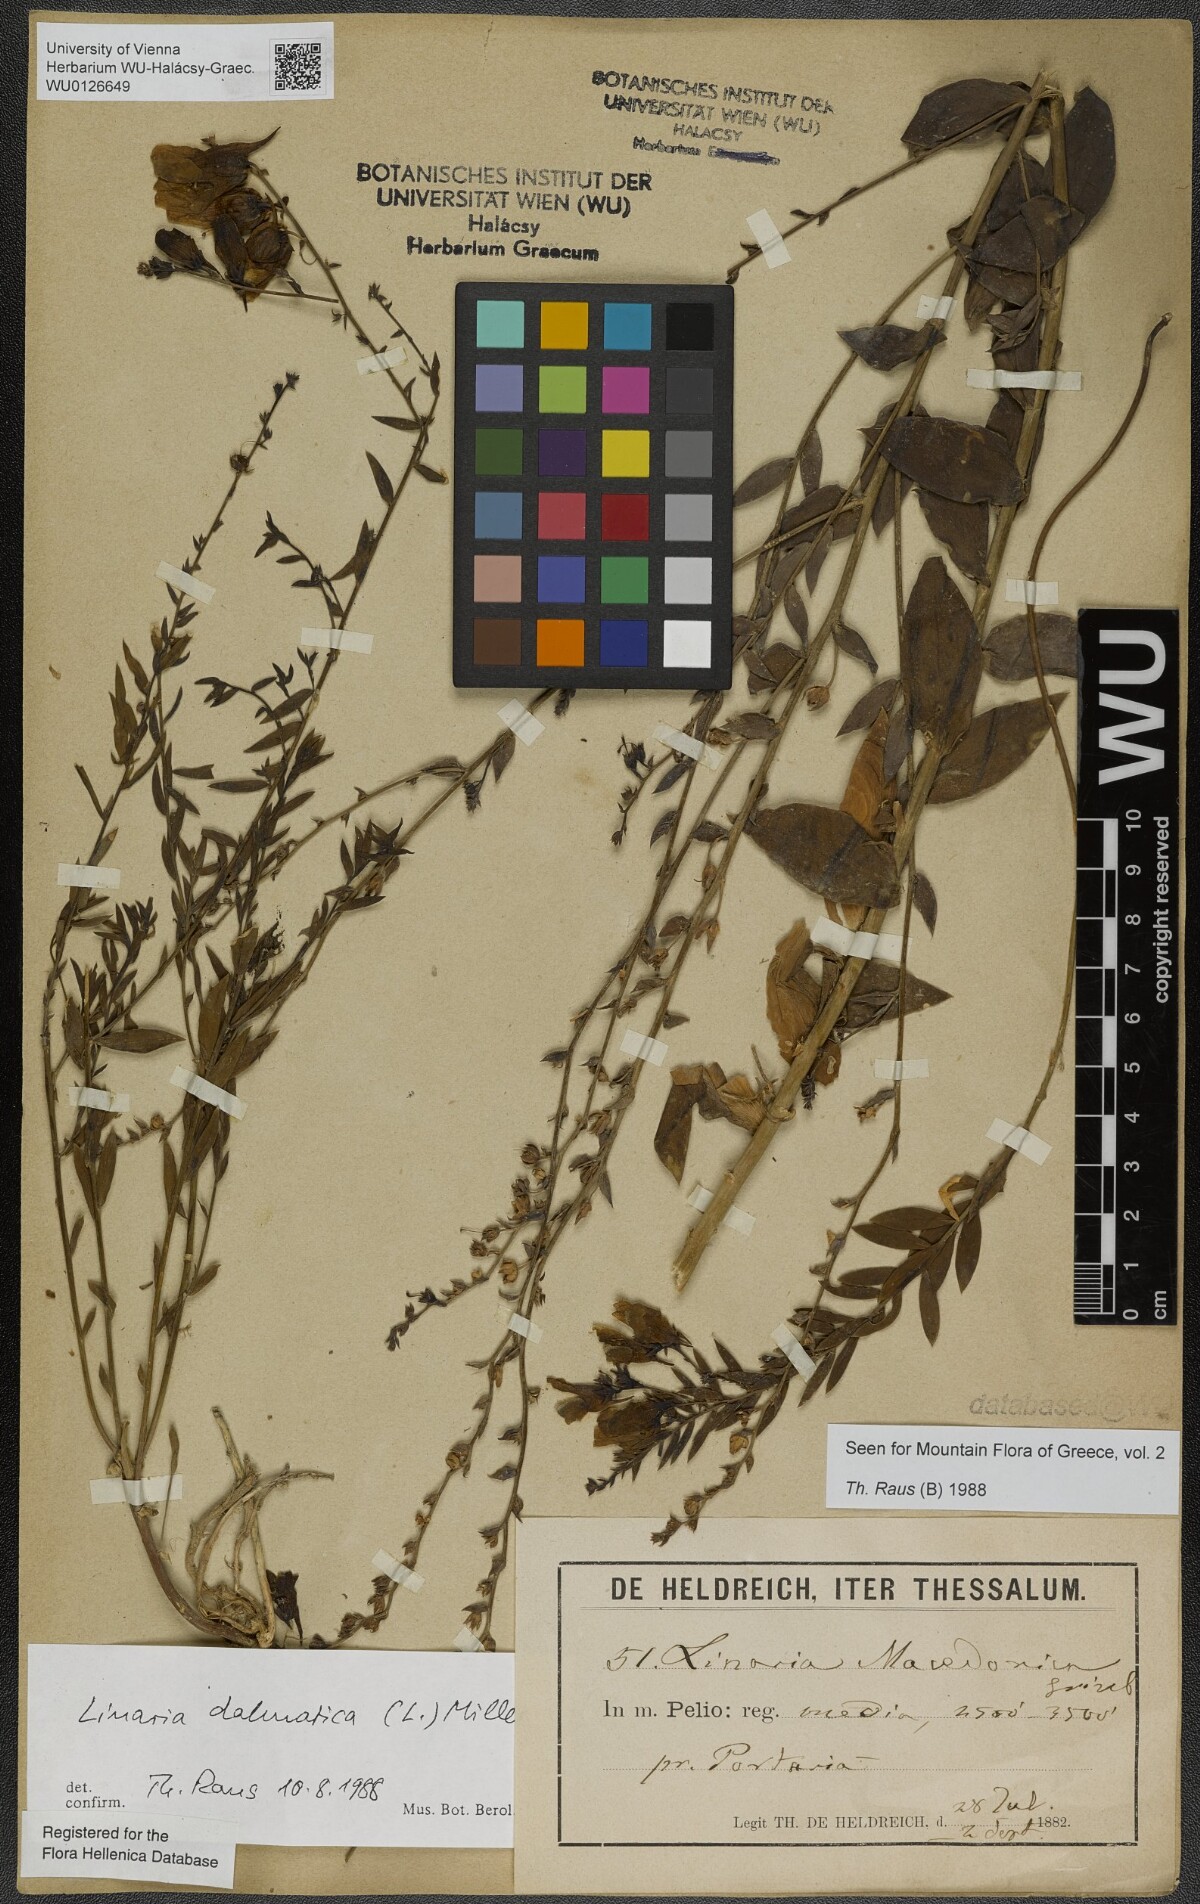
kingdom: Plantae
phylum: Tracheophyta
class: Magnoliopsida
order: Lamiales
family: Plantaginaceae
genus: Linaria
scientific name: Linaria dalmatica
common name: Dalmatian toadflax
